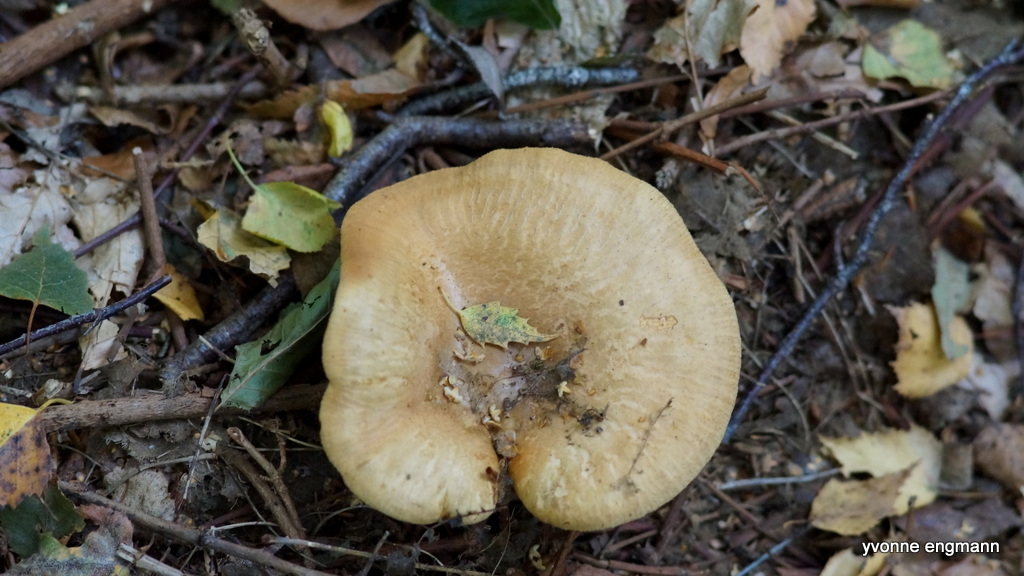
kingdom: Fungi
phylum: Basidiomycota
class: Agaricomycetes
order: Boletales
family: Paxillaceae
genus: Paxillus
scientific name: Paxillus involutus
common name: almindelig netbladhat
